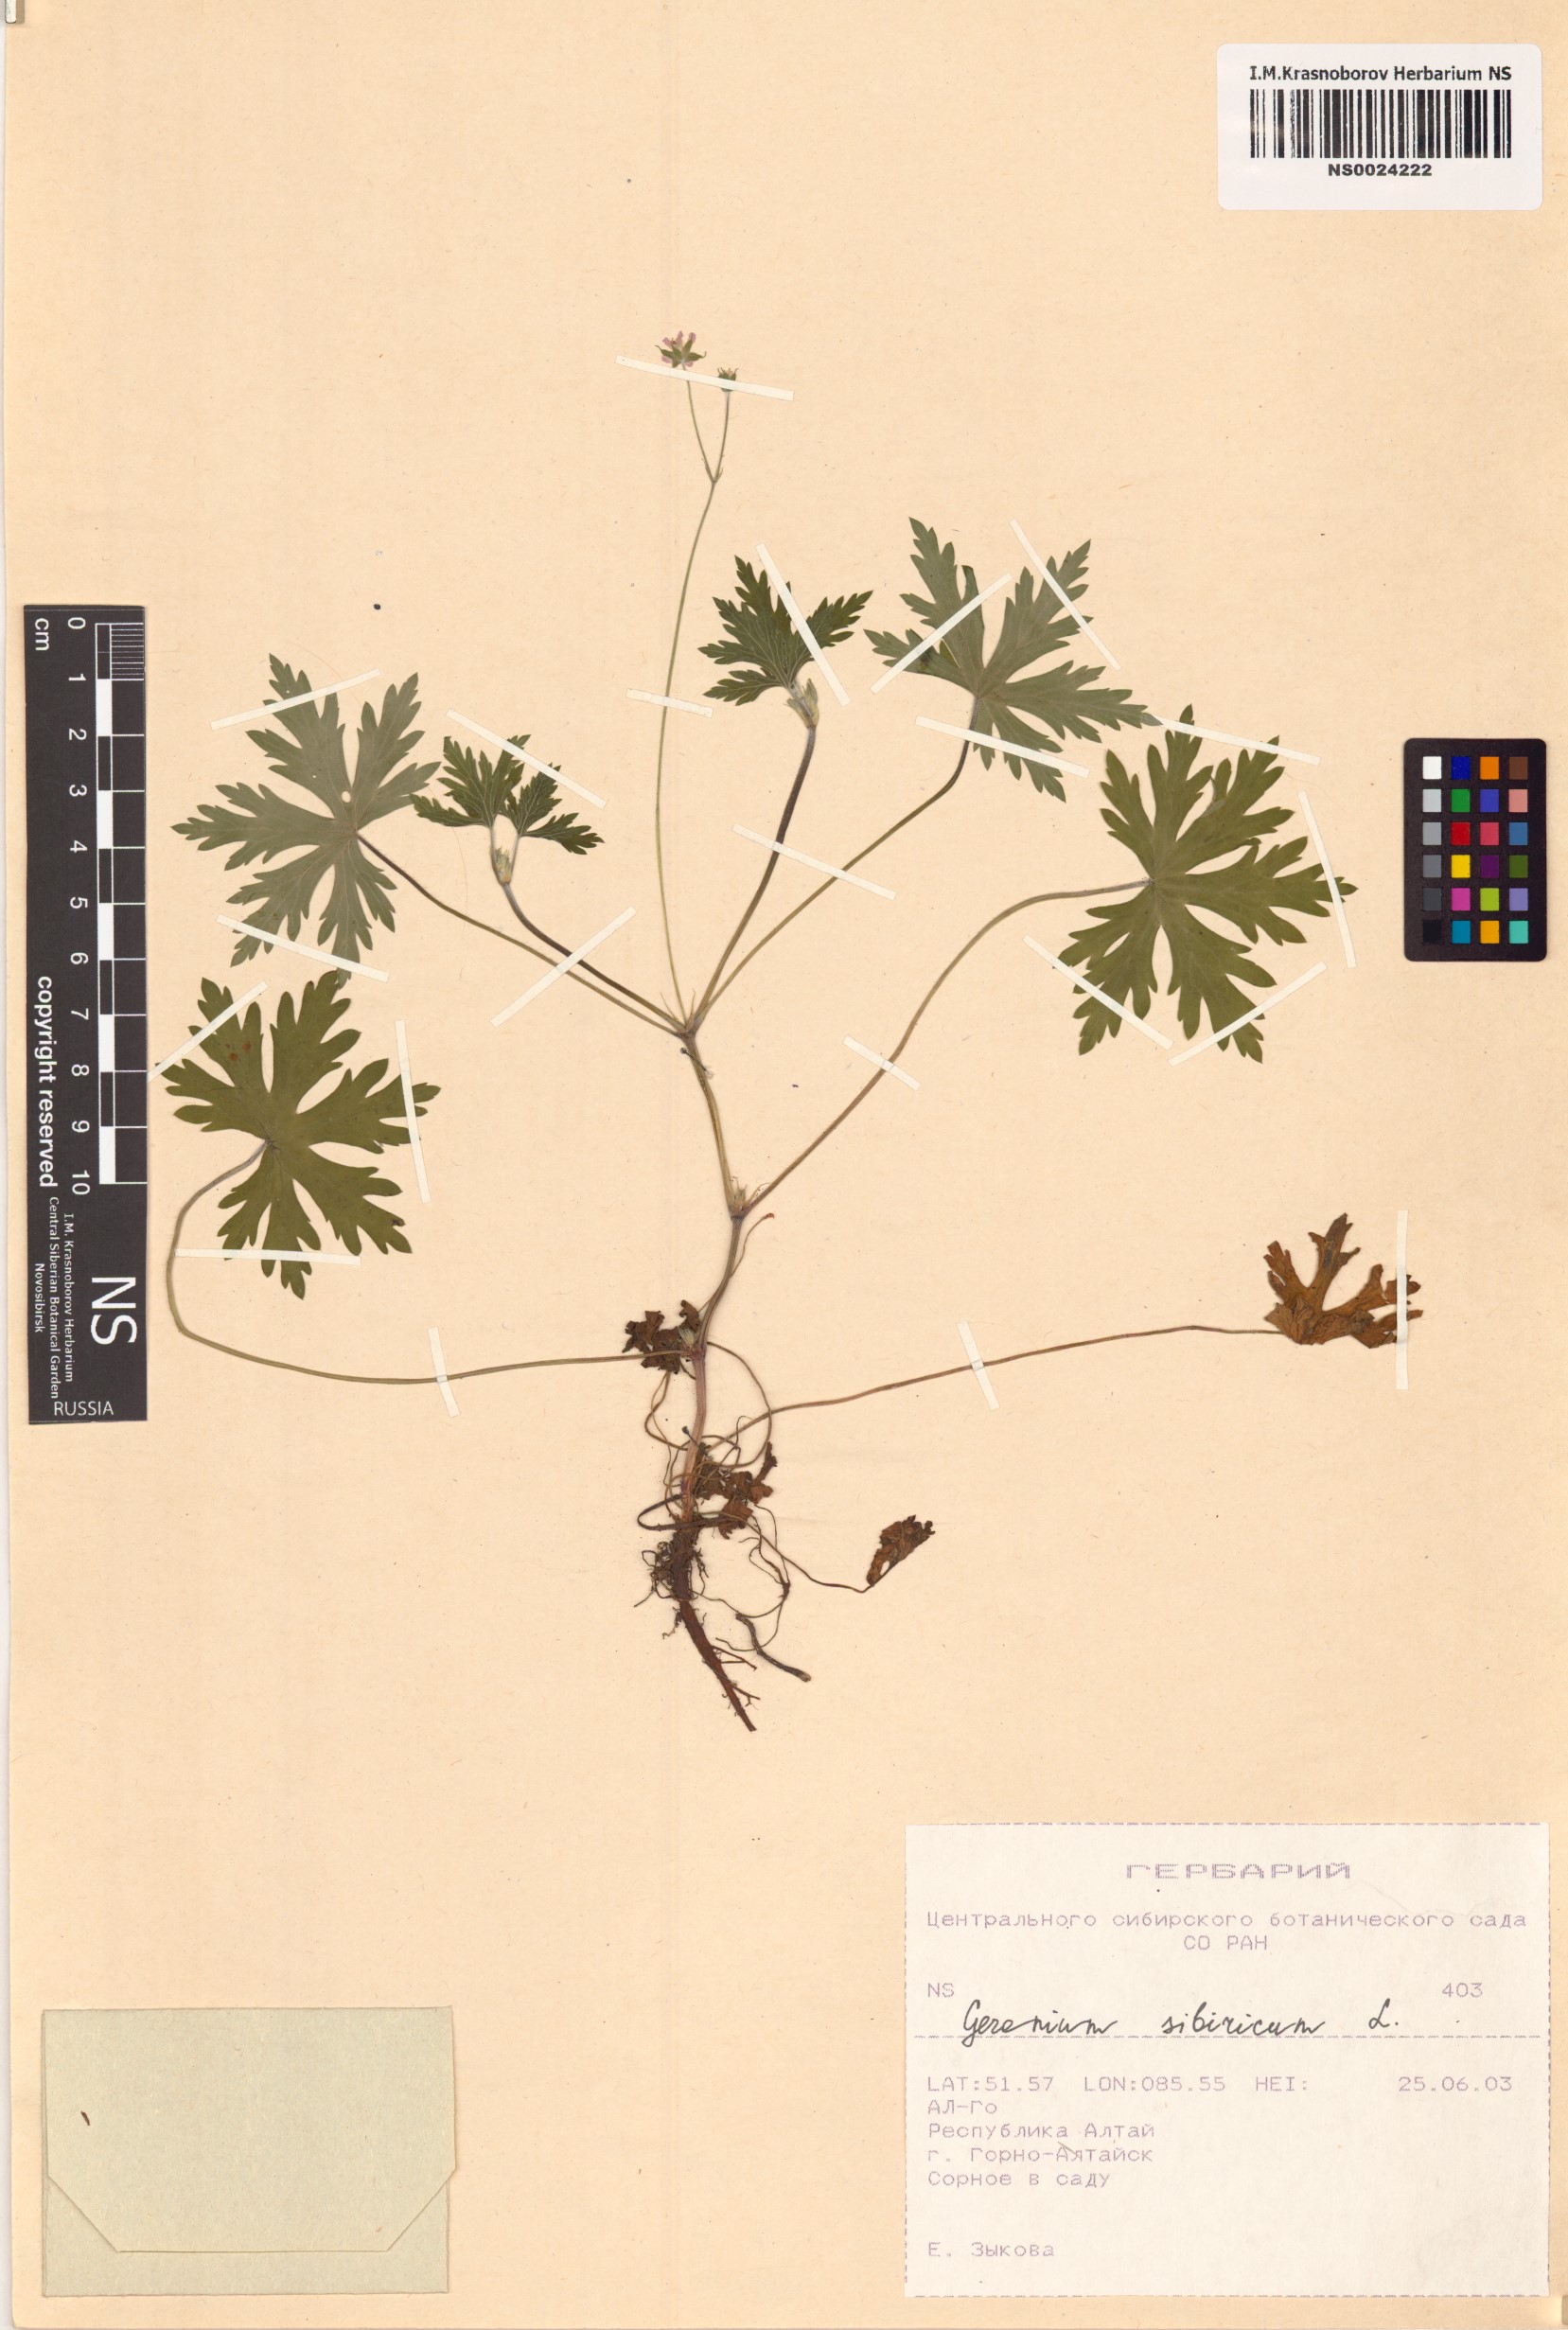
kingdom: Plantae
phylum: Tracheophyta
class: Magnoliopsida
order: Geraniales
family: Geraniaceae
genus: Geranium
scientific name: Geranium sibiricum
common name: Siberian crane's-bill
